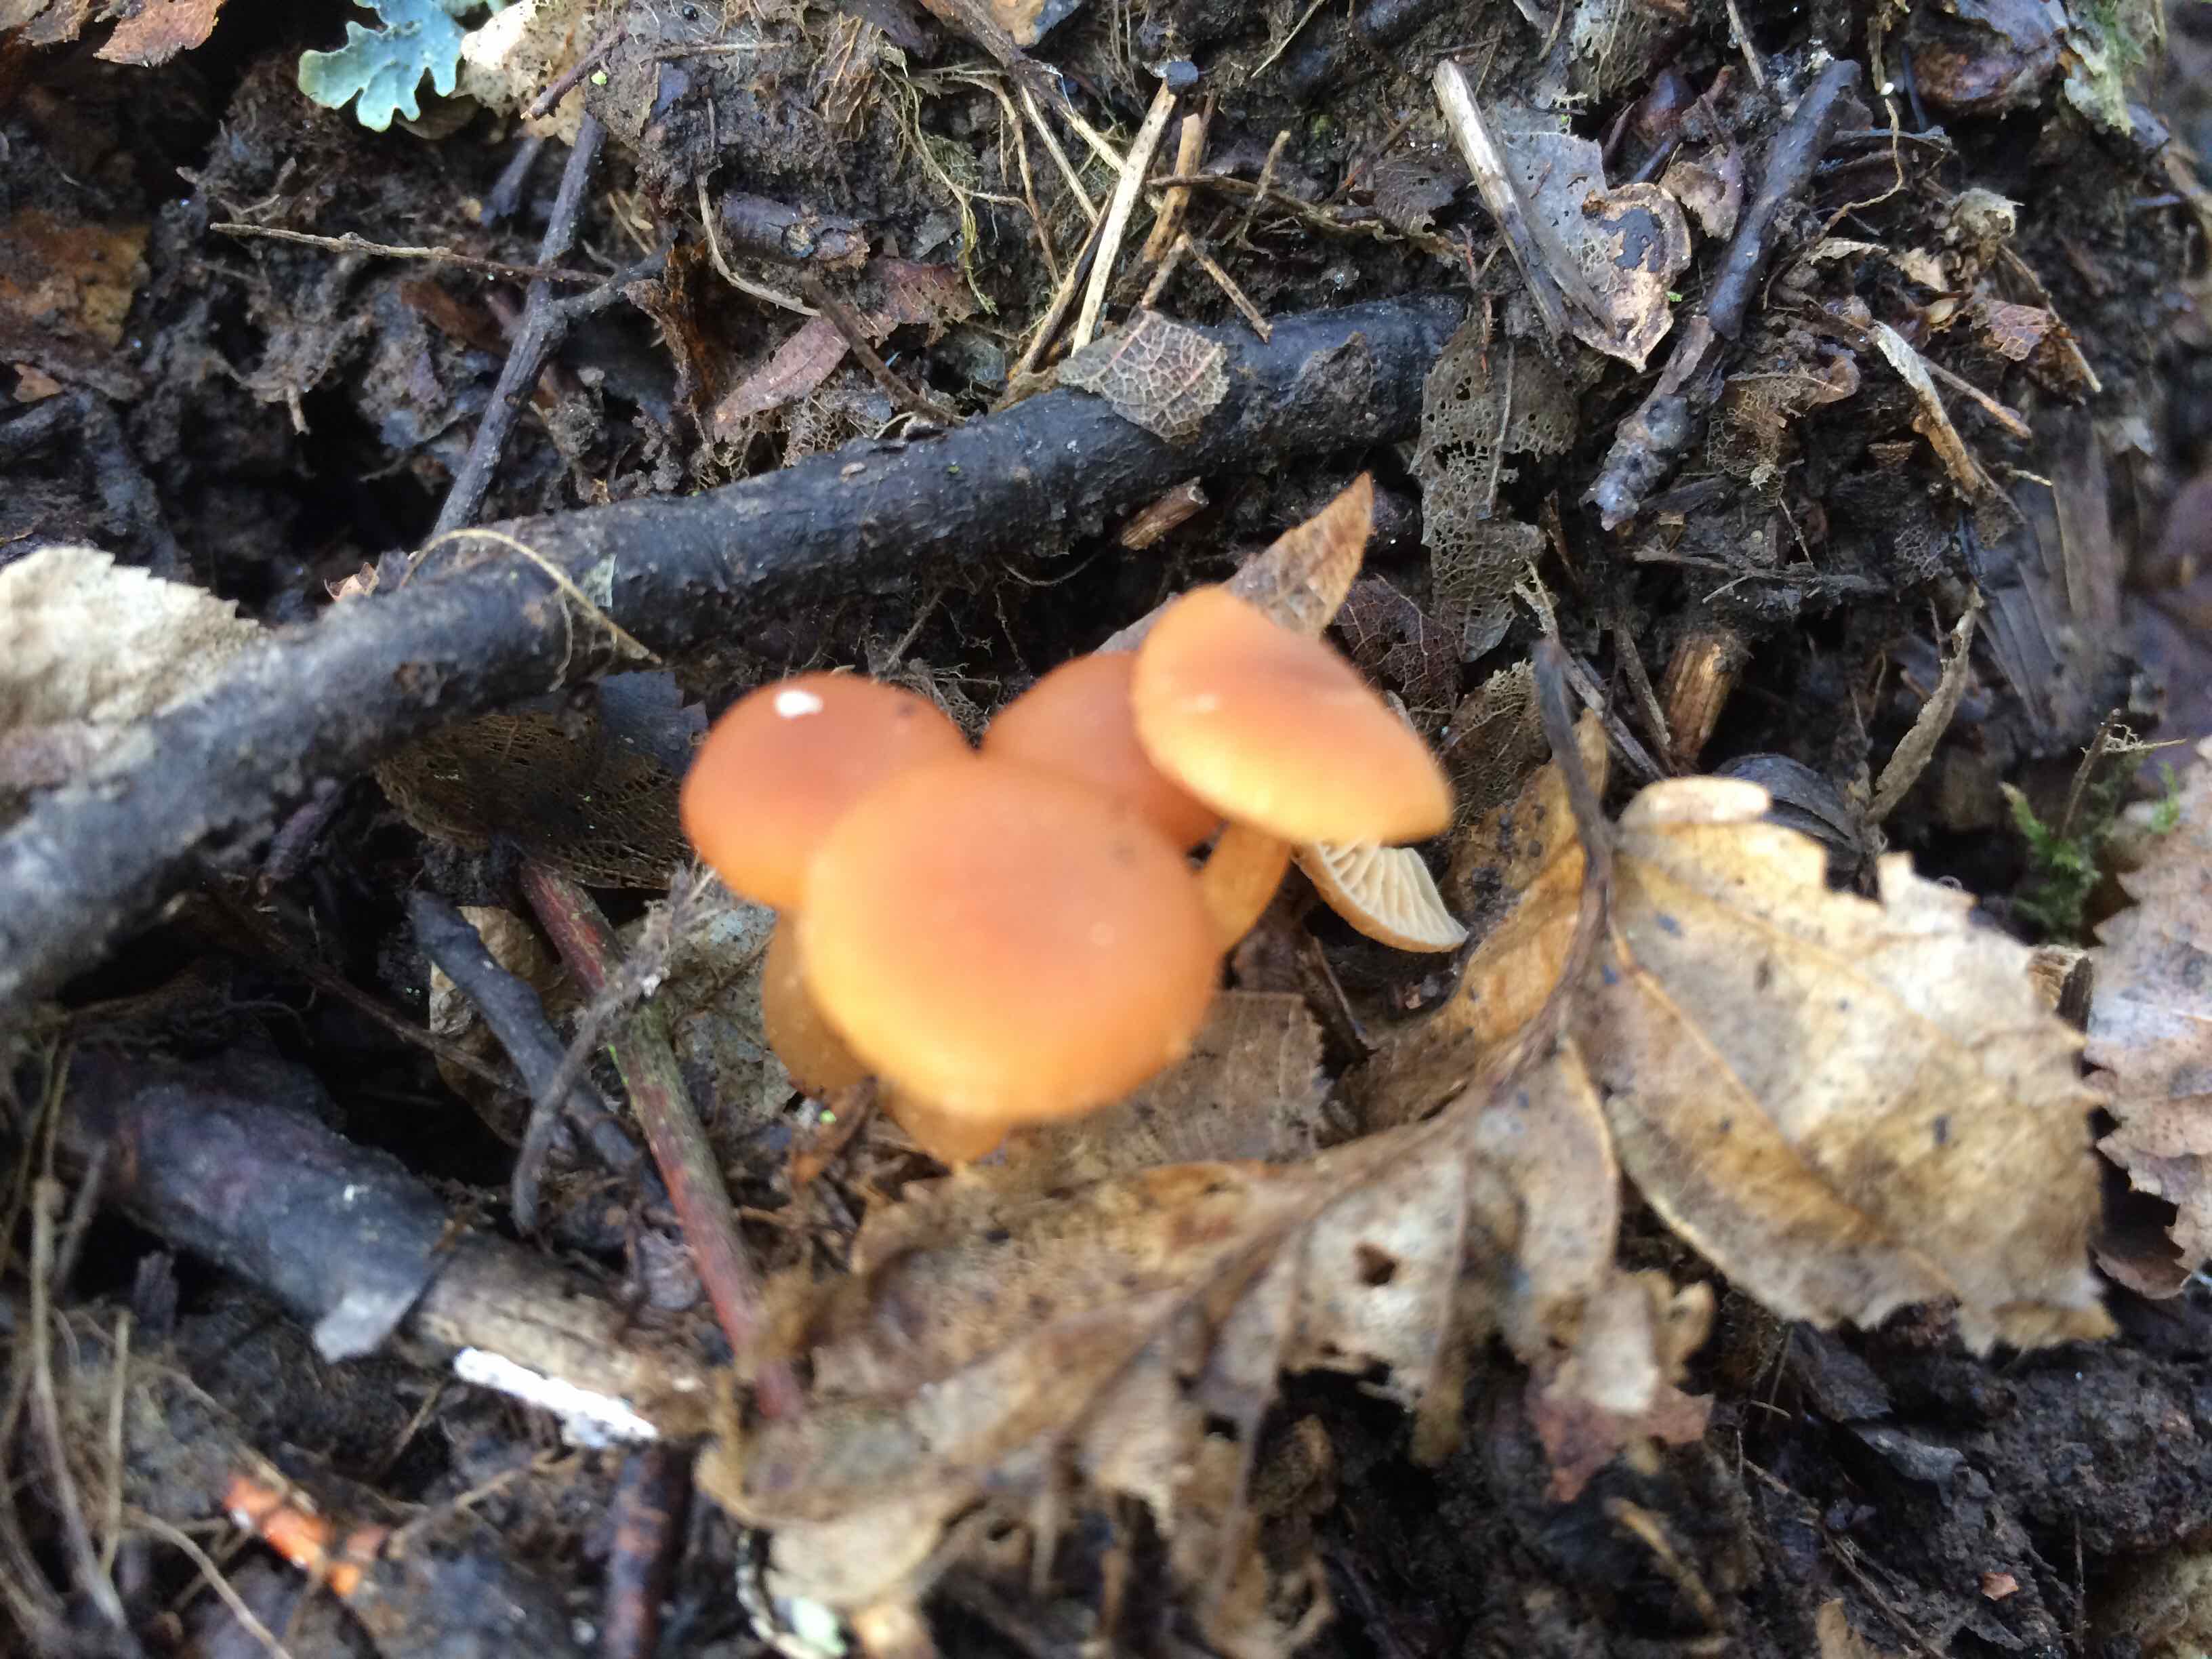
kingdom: Fungi
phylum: Basidiomycota
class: Agaricomycetes
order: Agaricales
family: Tubariaceae
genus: Tubaria
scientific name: Tubaria furfuracea
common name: kliddet fnughat
